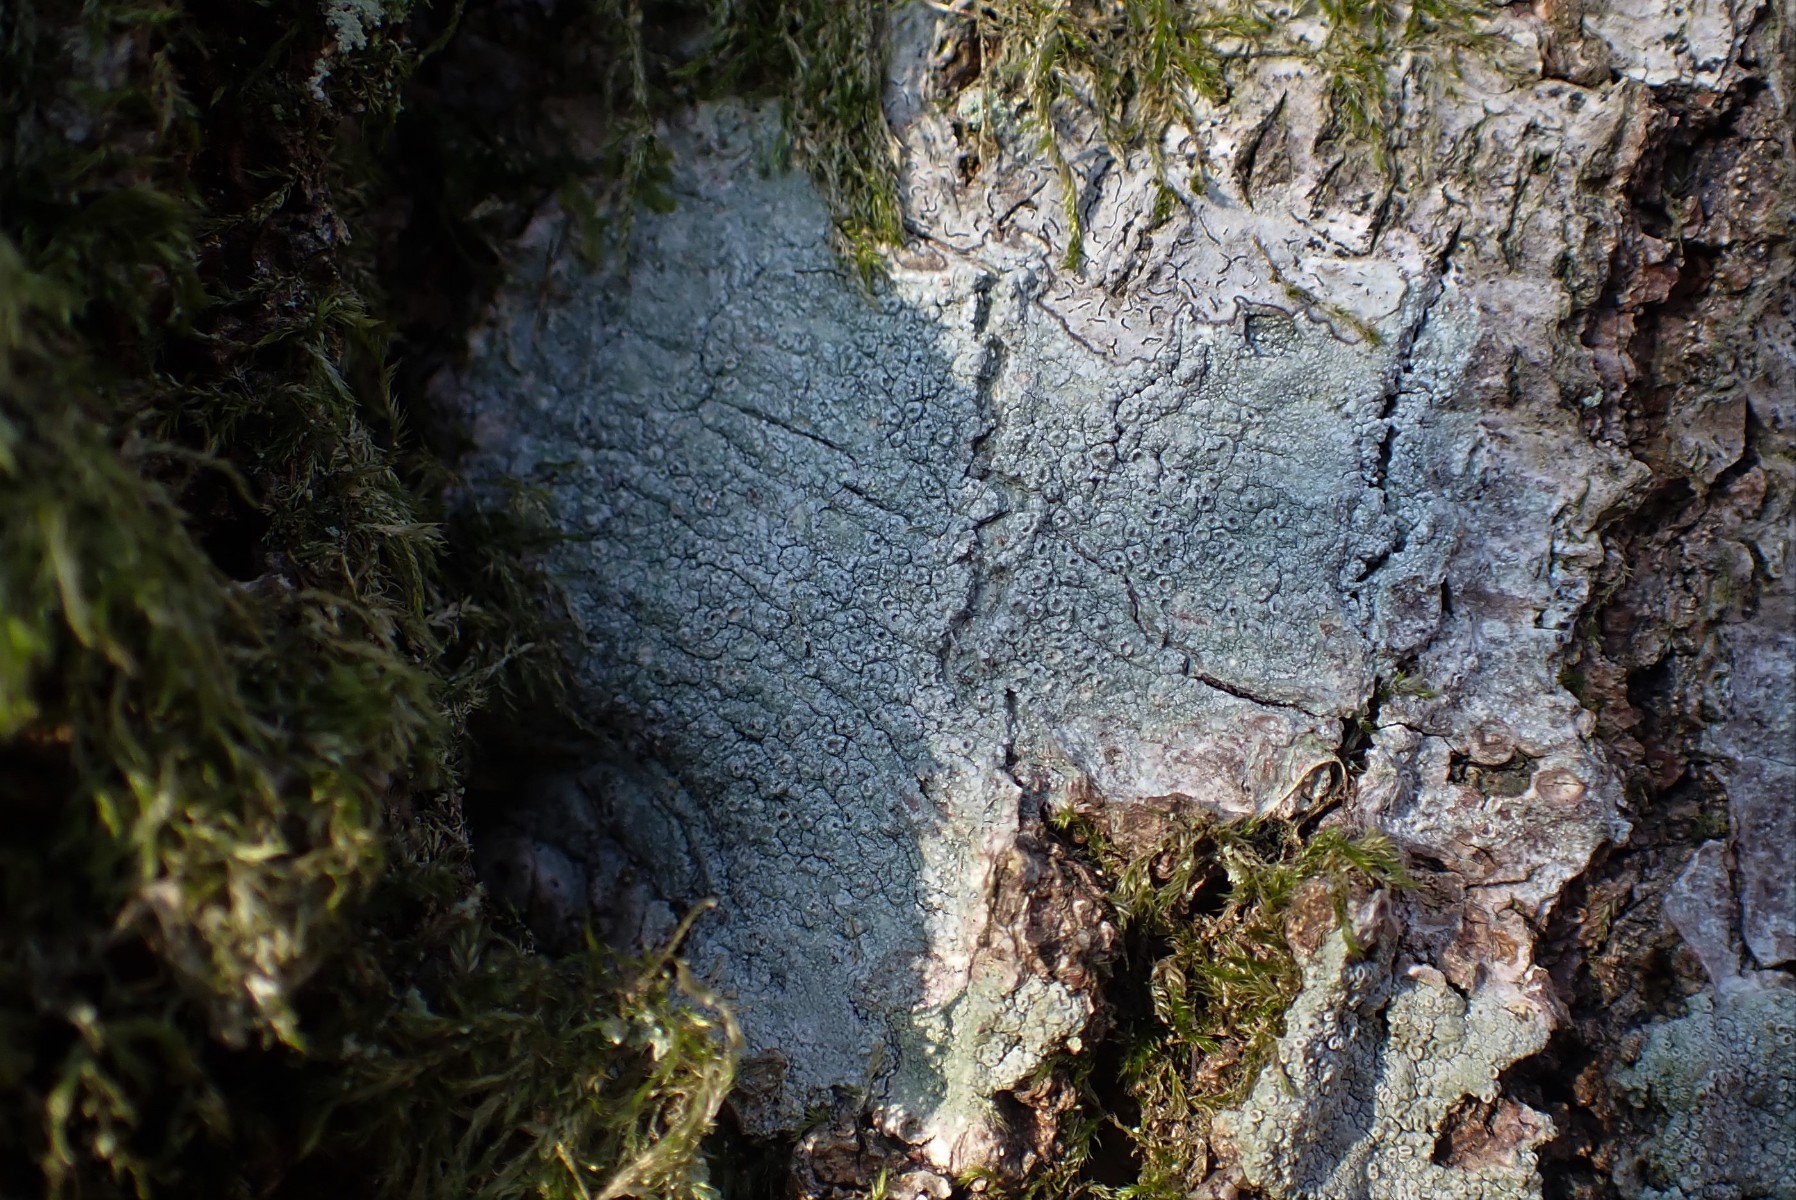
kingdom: Fungi
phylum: Ascomycota
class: Lecanoromycetes
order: Pertusariales
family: Pertusariaceae
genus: Pertusaria
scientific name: Pertusaria hymenea
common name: åben prikvortelav
